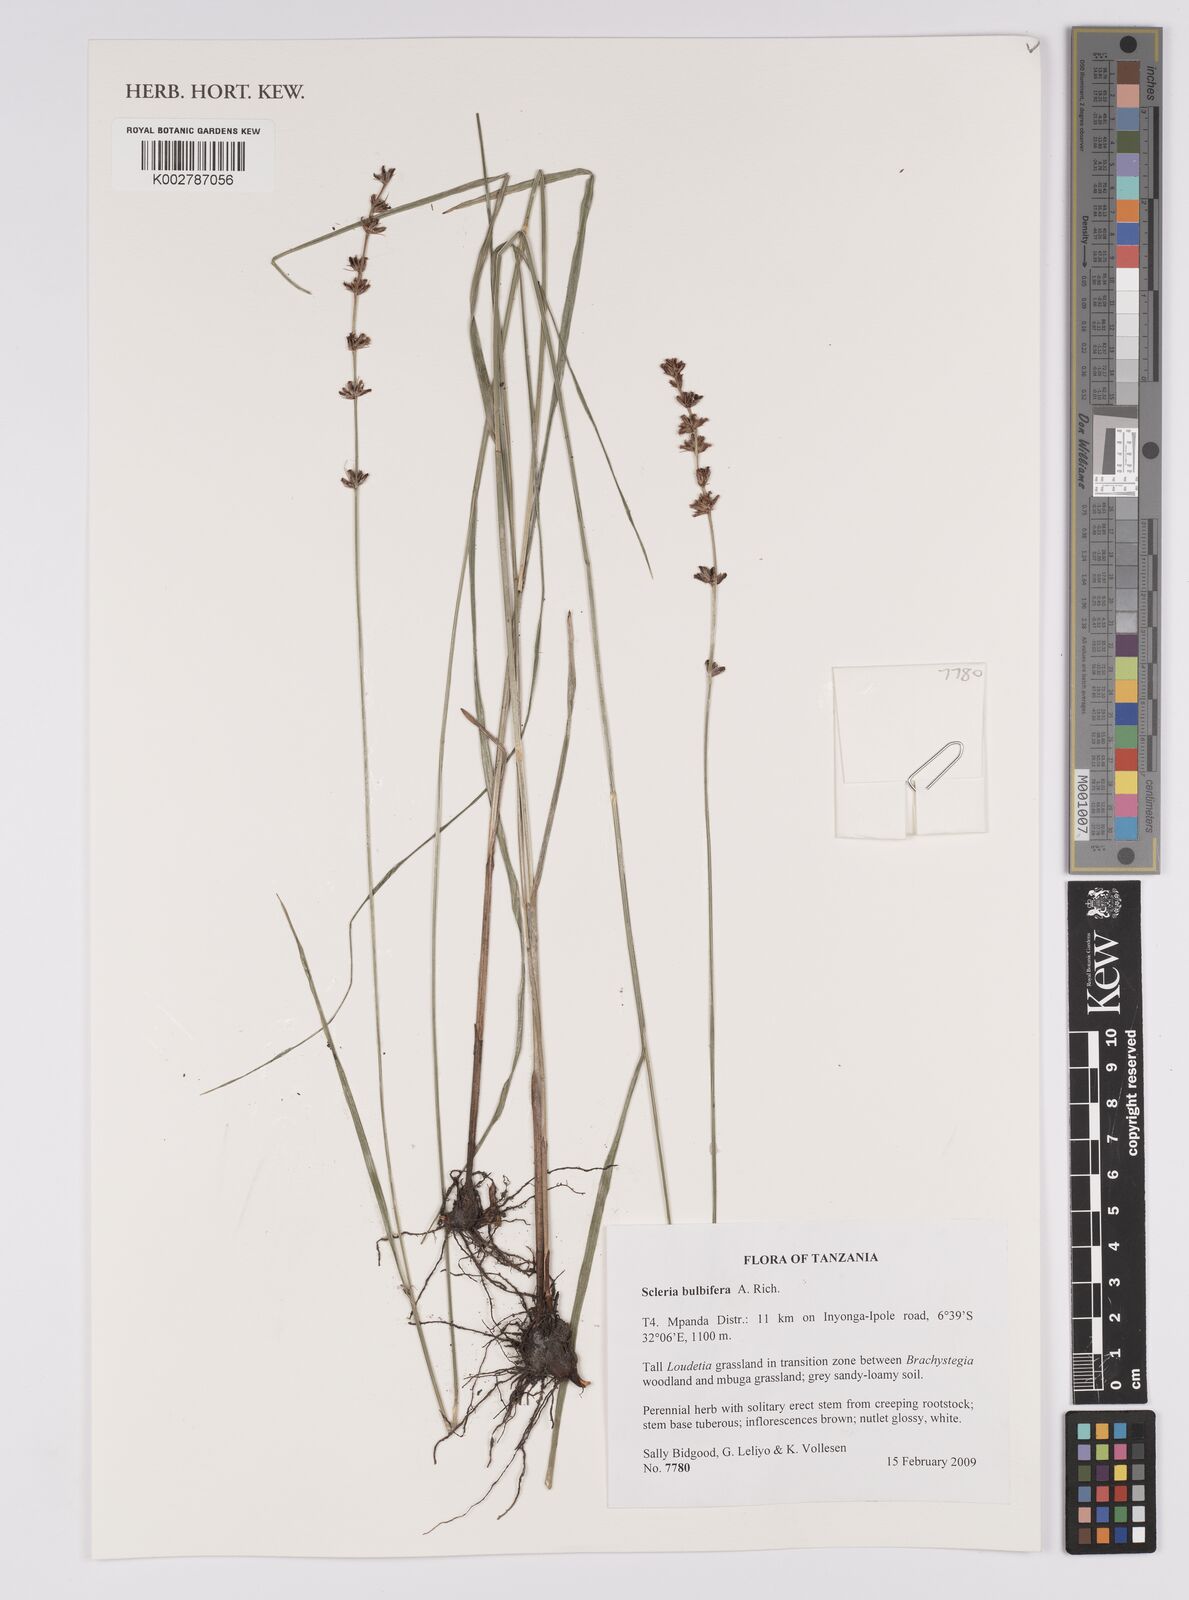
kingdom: Plantae
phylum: Tracheophyta
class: Liliopsida
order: Poales
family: Cyperaceae
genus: Scleria
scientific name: Scleria bulbifera
